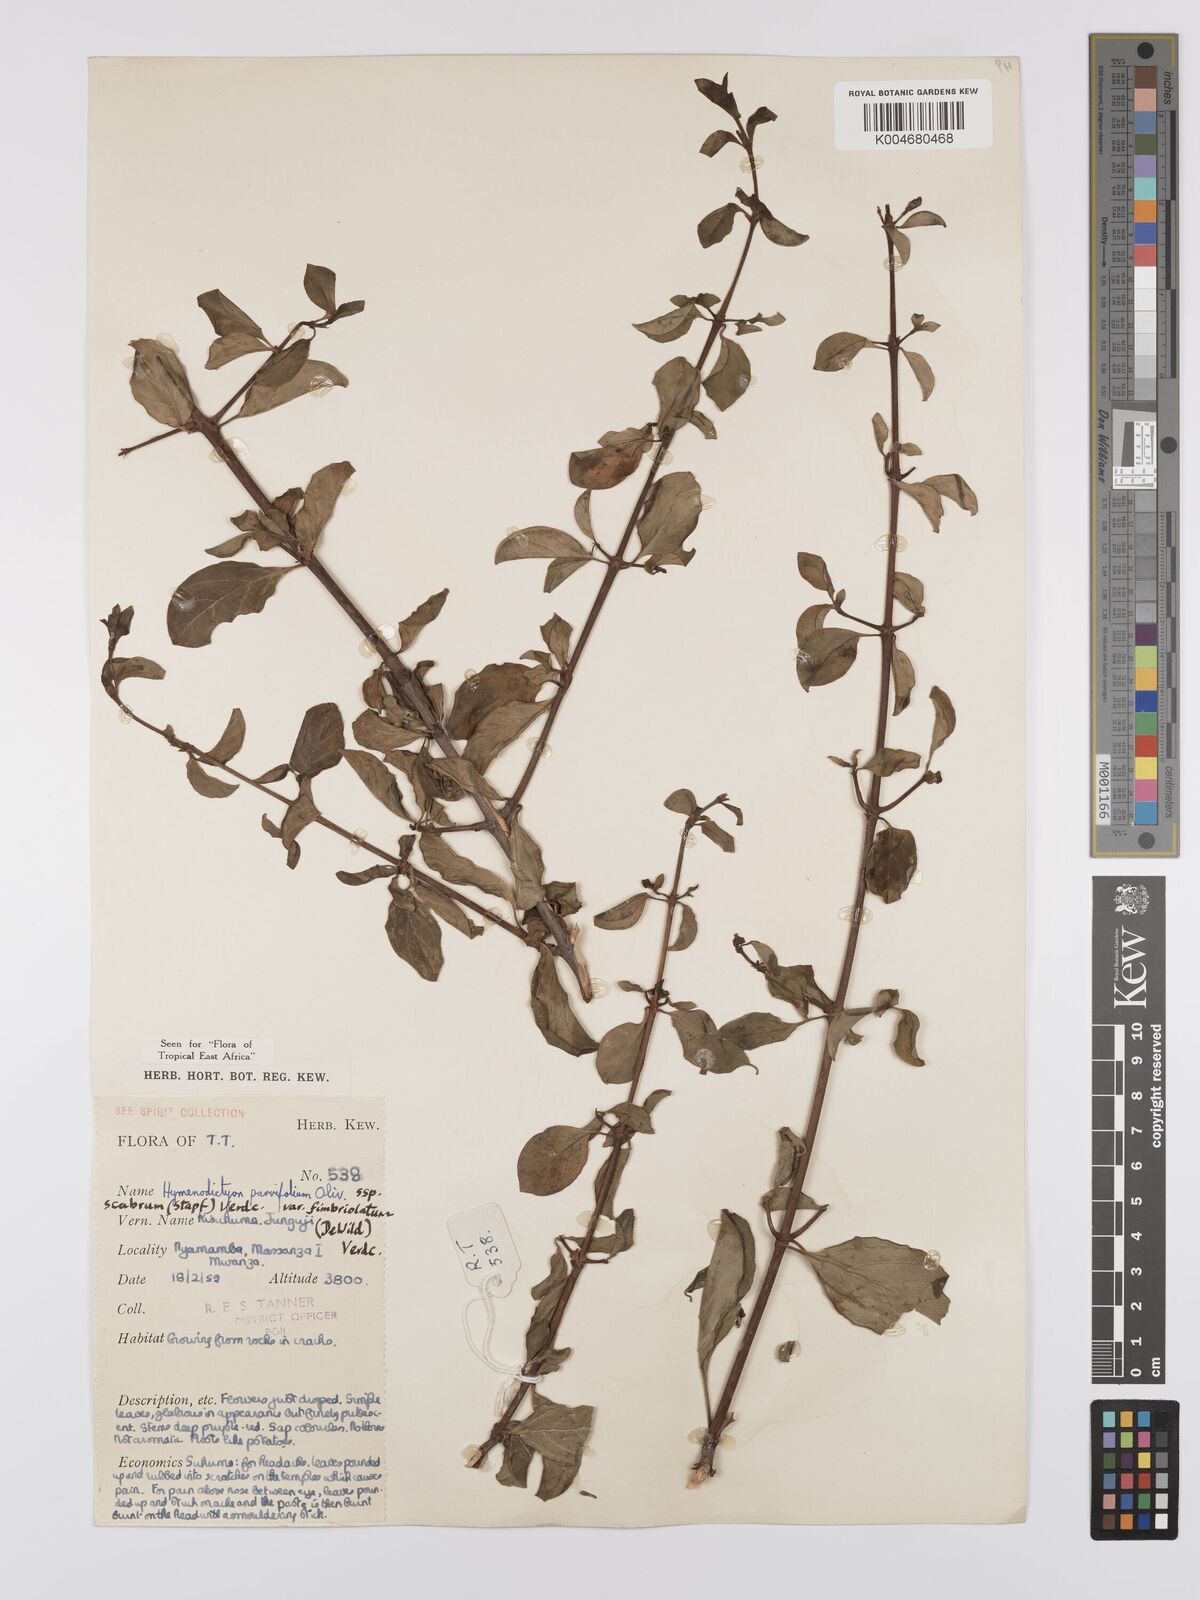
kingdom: Plantae
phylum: Tracheophyta
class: Magnoliopsida
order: Gentianales
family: Rubiaceae
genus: Hymenodictyon
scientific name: Hymenodictyon scabrum
